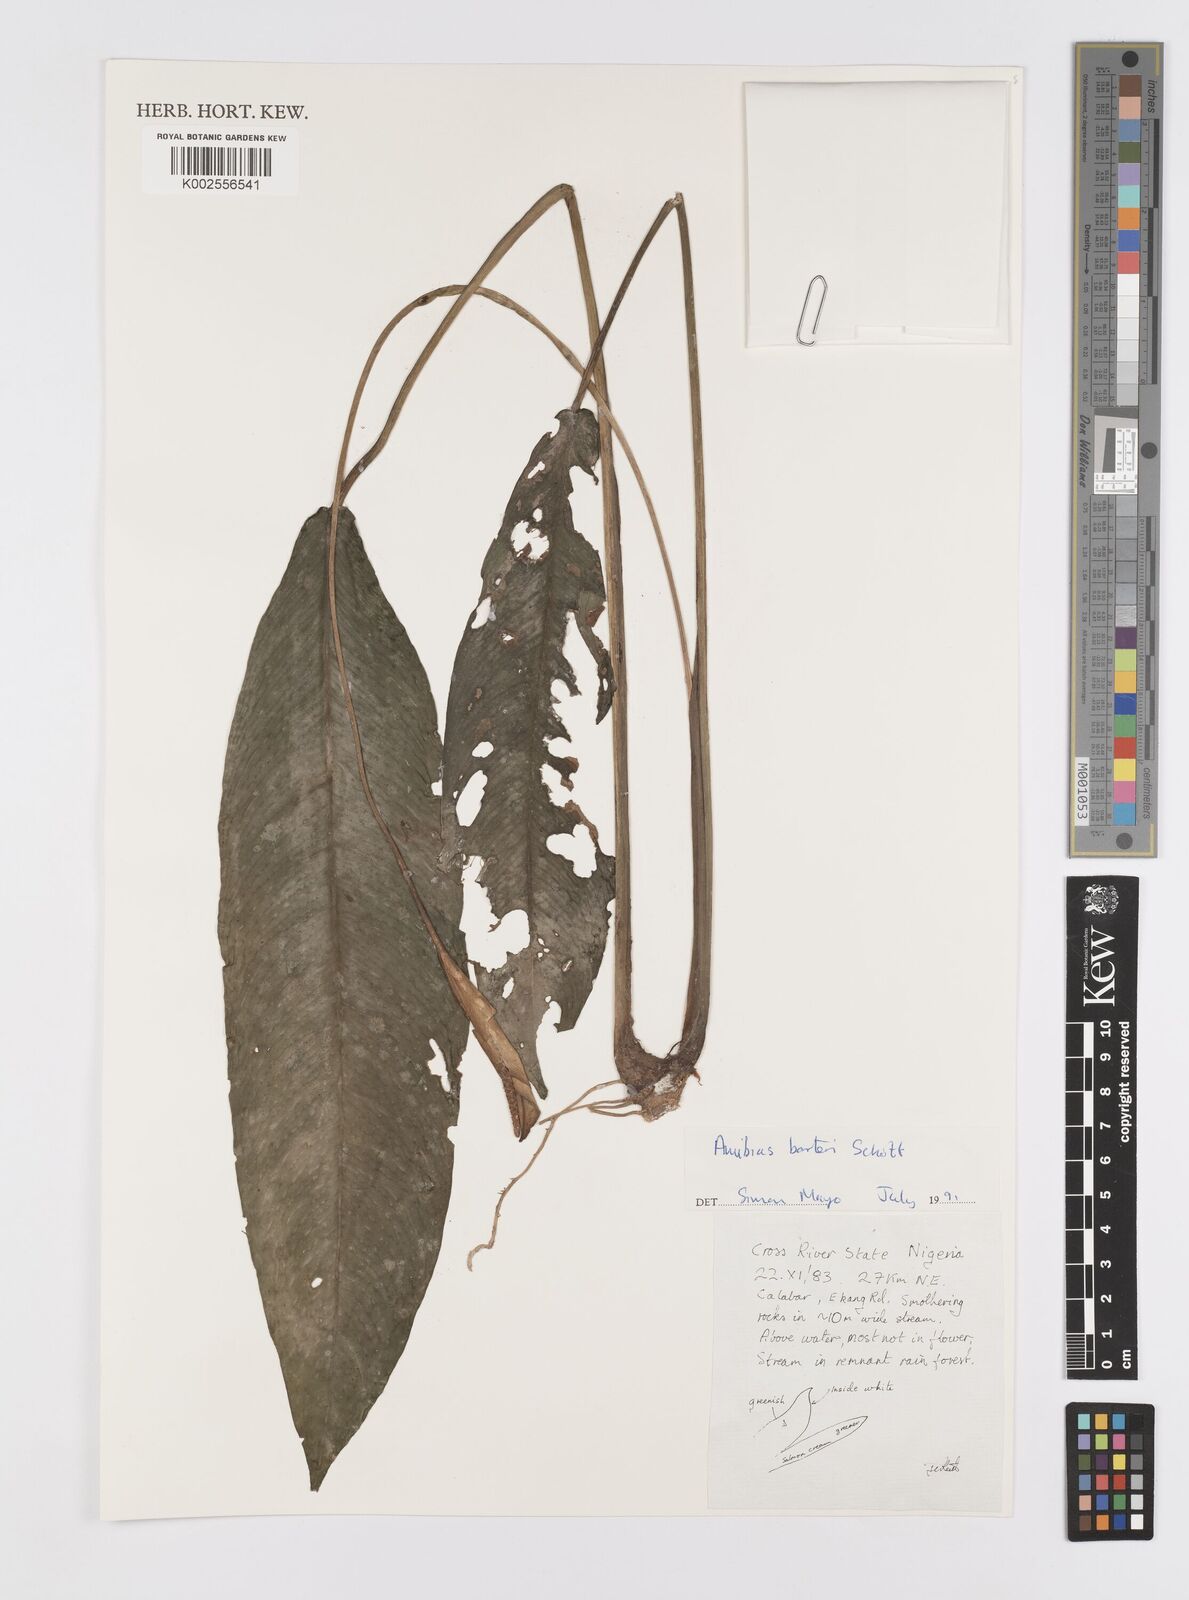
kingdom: Plantae
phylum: Tracheophyta
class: Liliopsida
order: Alismatales
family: Araceae
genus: Anubias
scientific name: Anubias barteri
